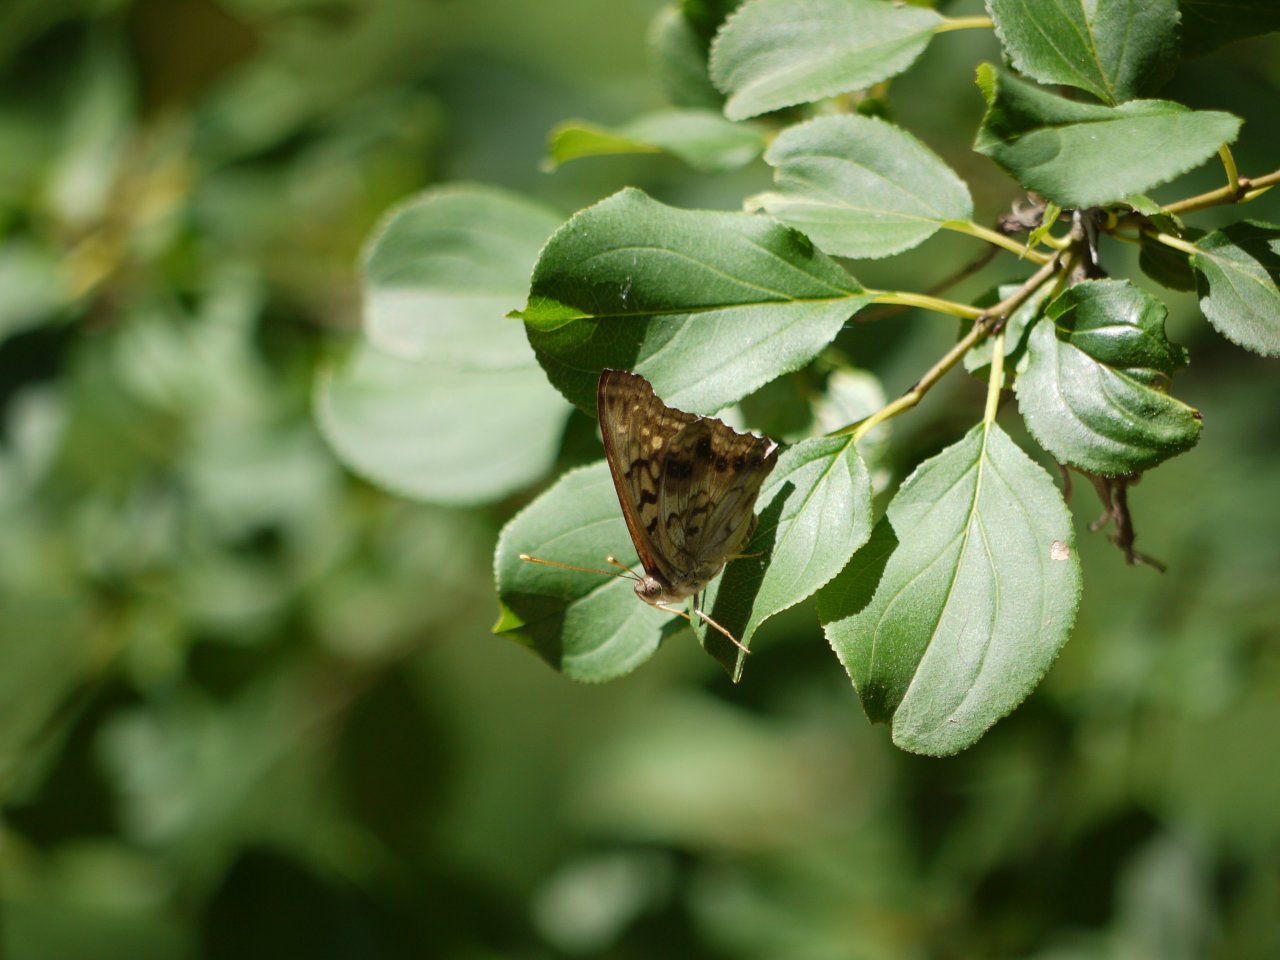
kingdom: Animalia
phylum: Arthropoda
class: Insecta
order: Lepidoptera
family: Nymphalidae
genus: Asterocampa
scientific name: Asterocampa clyton
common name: Tawny Emperor
